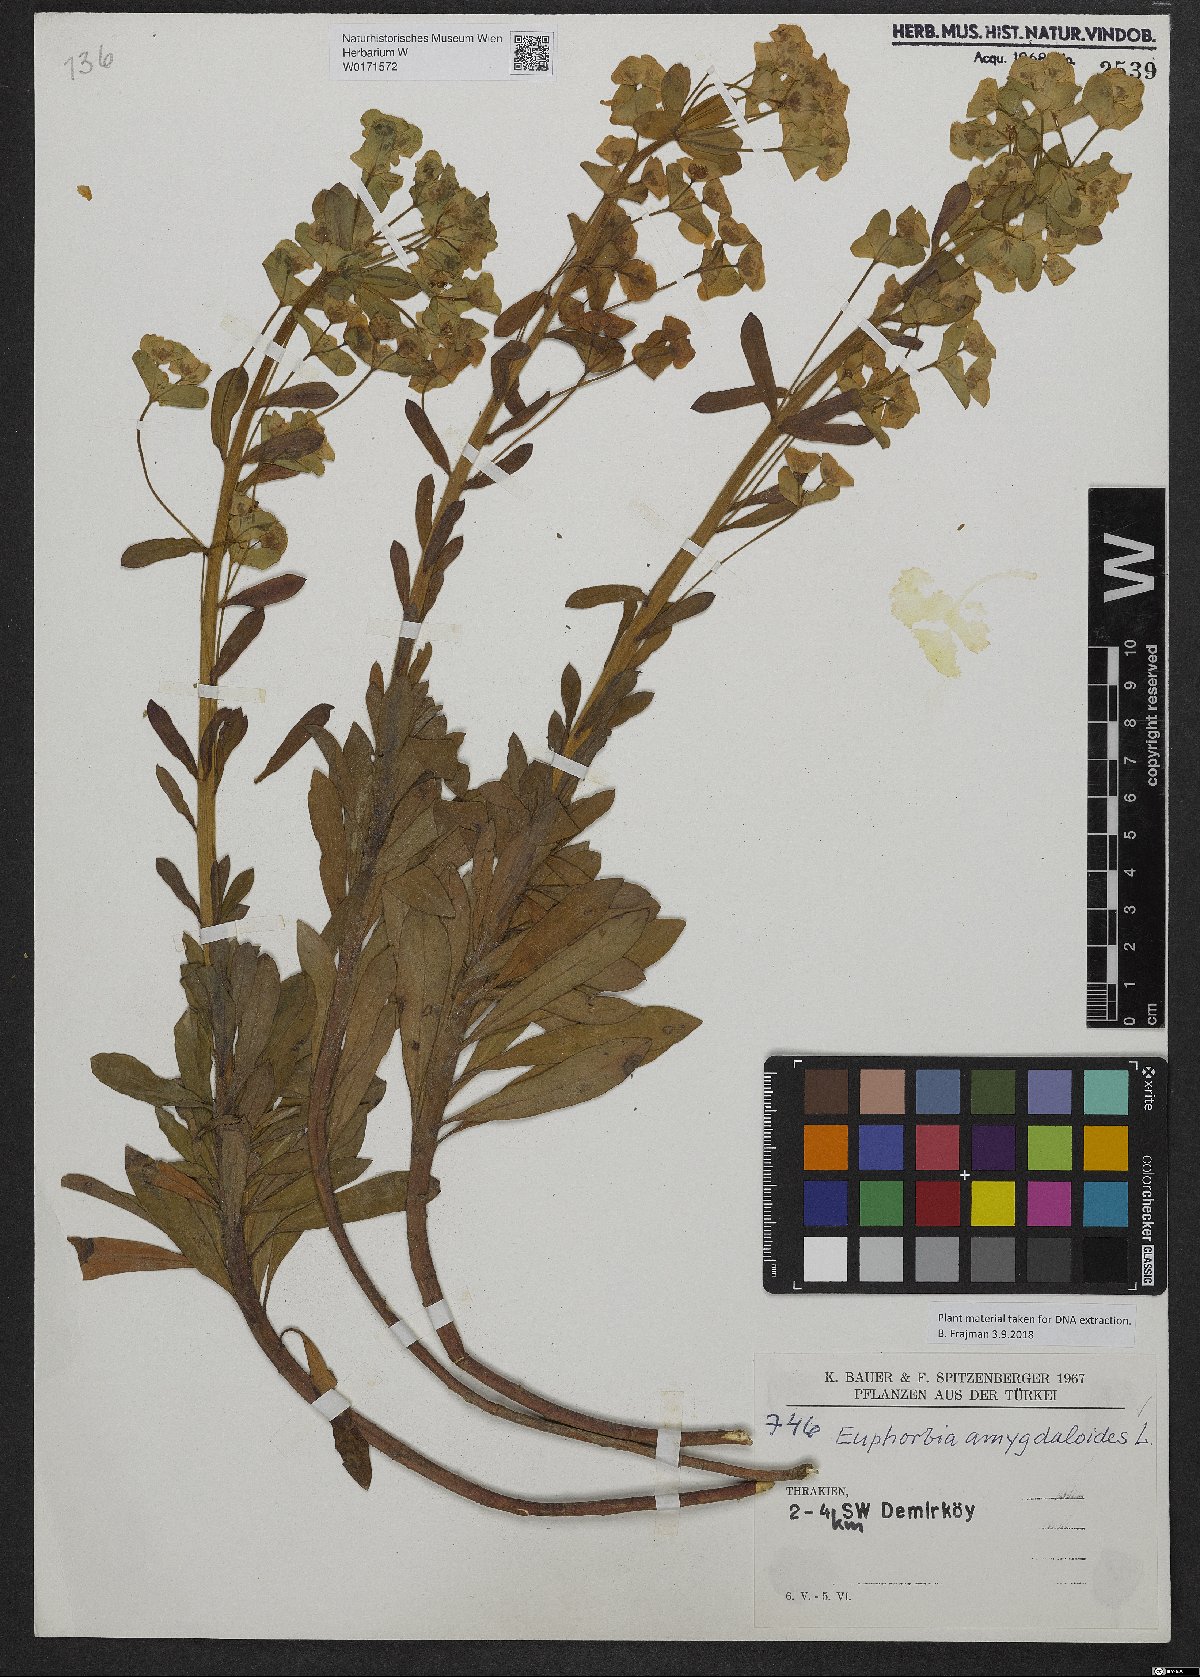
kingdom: Plantae
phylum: Tracheophyta
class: Magnoliopsida
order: Malpighiales
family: Euphorbiaceae
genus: Euphorbia
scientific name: Euphorbia amygdaloides
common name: Wood spurge
